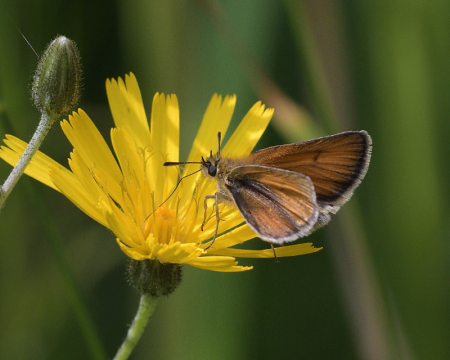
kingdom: Animalia
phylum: Arthropoda
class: Insecta
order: Lepidoptera
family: Hesperiidae
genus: Thymelicus
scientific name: Thymelicus lineola
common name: European Skipper
